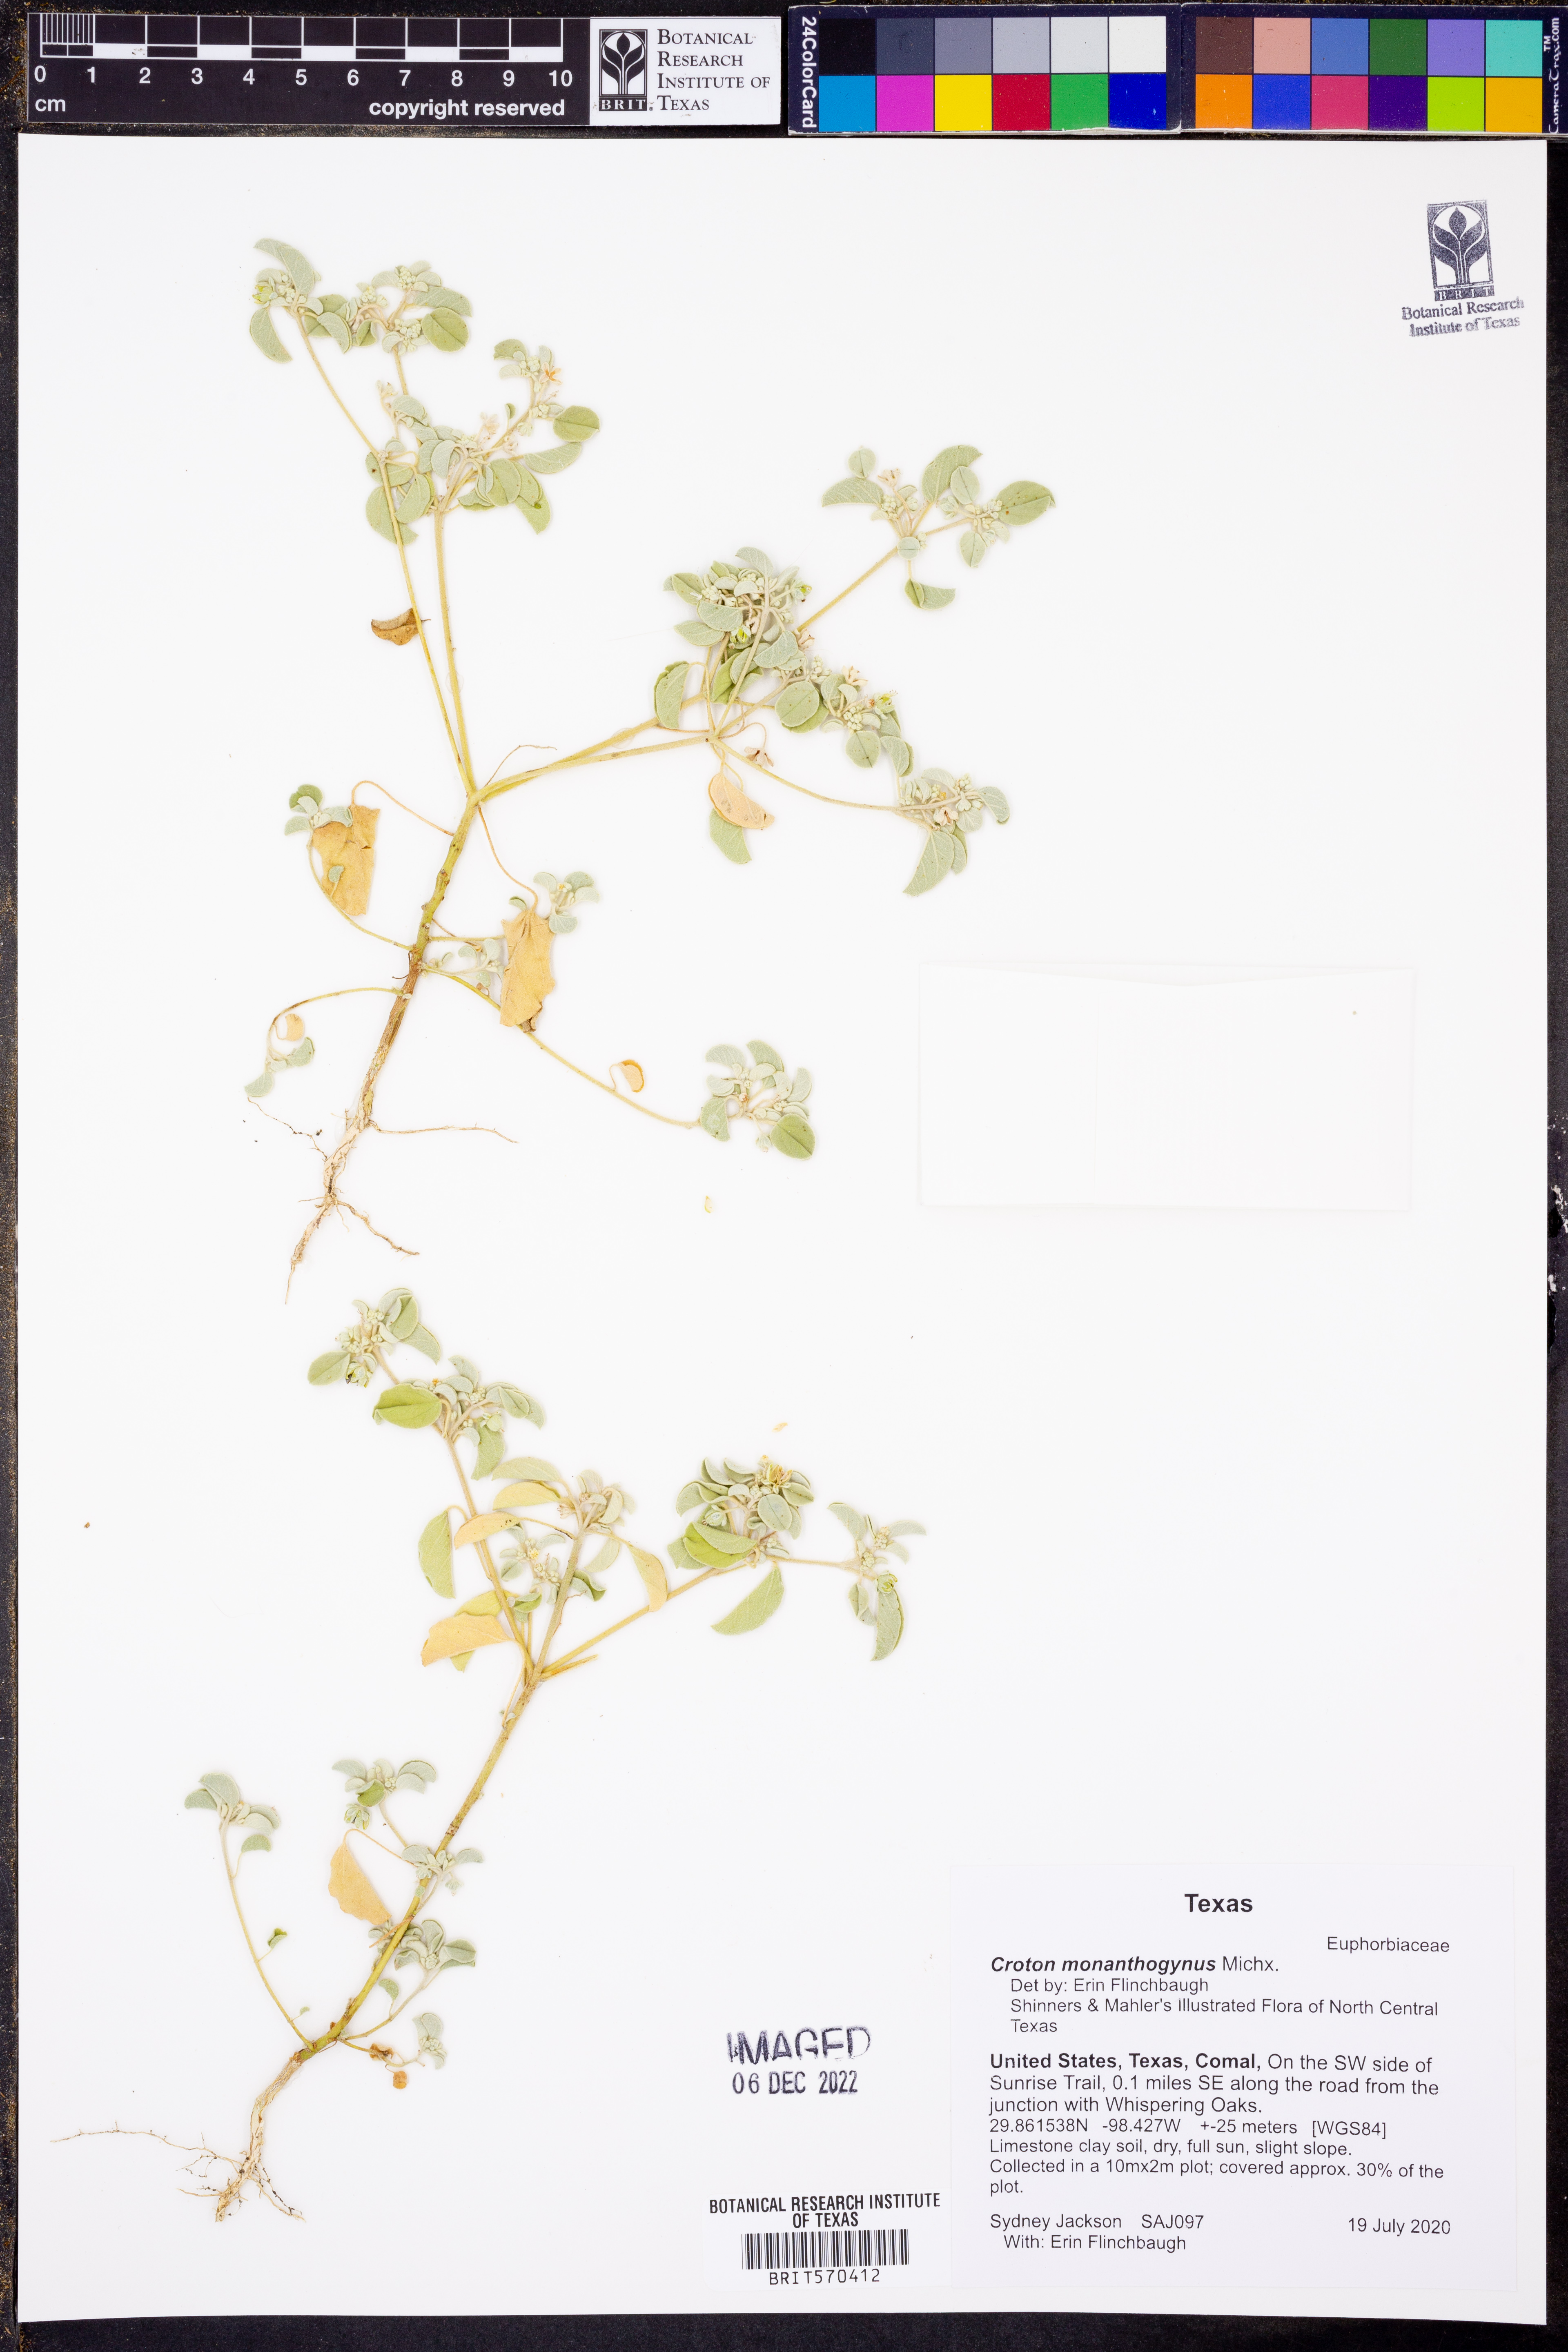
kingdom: Plantae
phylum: Tracheophyta
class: Magnoliopsida
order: Malpighiales
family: Euphorbiaceae
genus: Croton
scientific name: Croton monanthogynus
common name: One-seed croton
